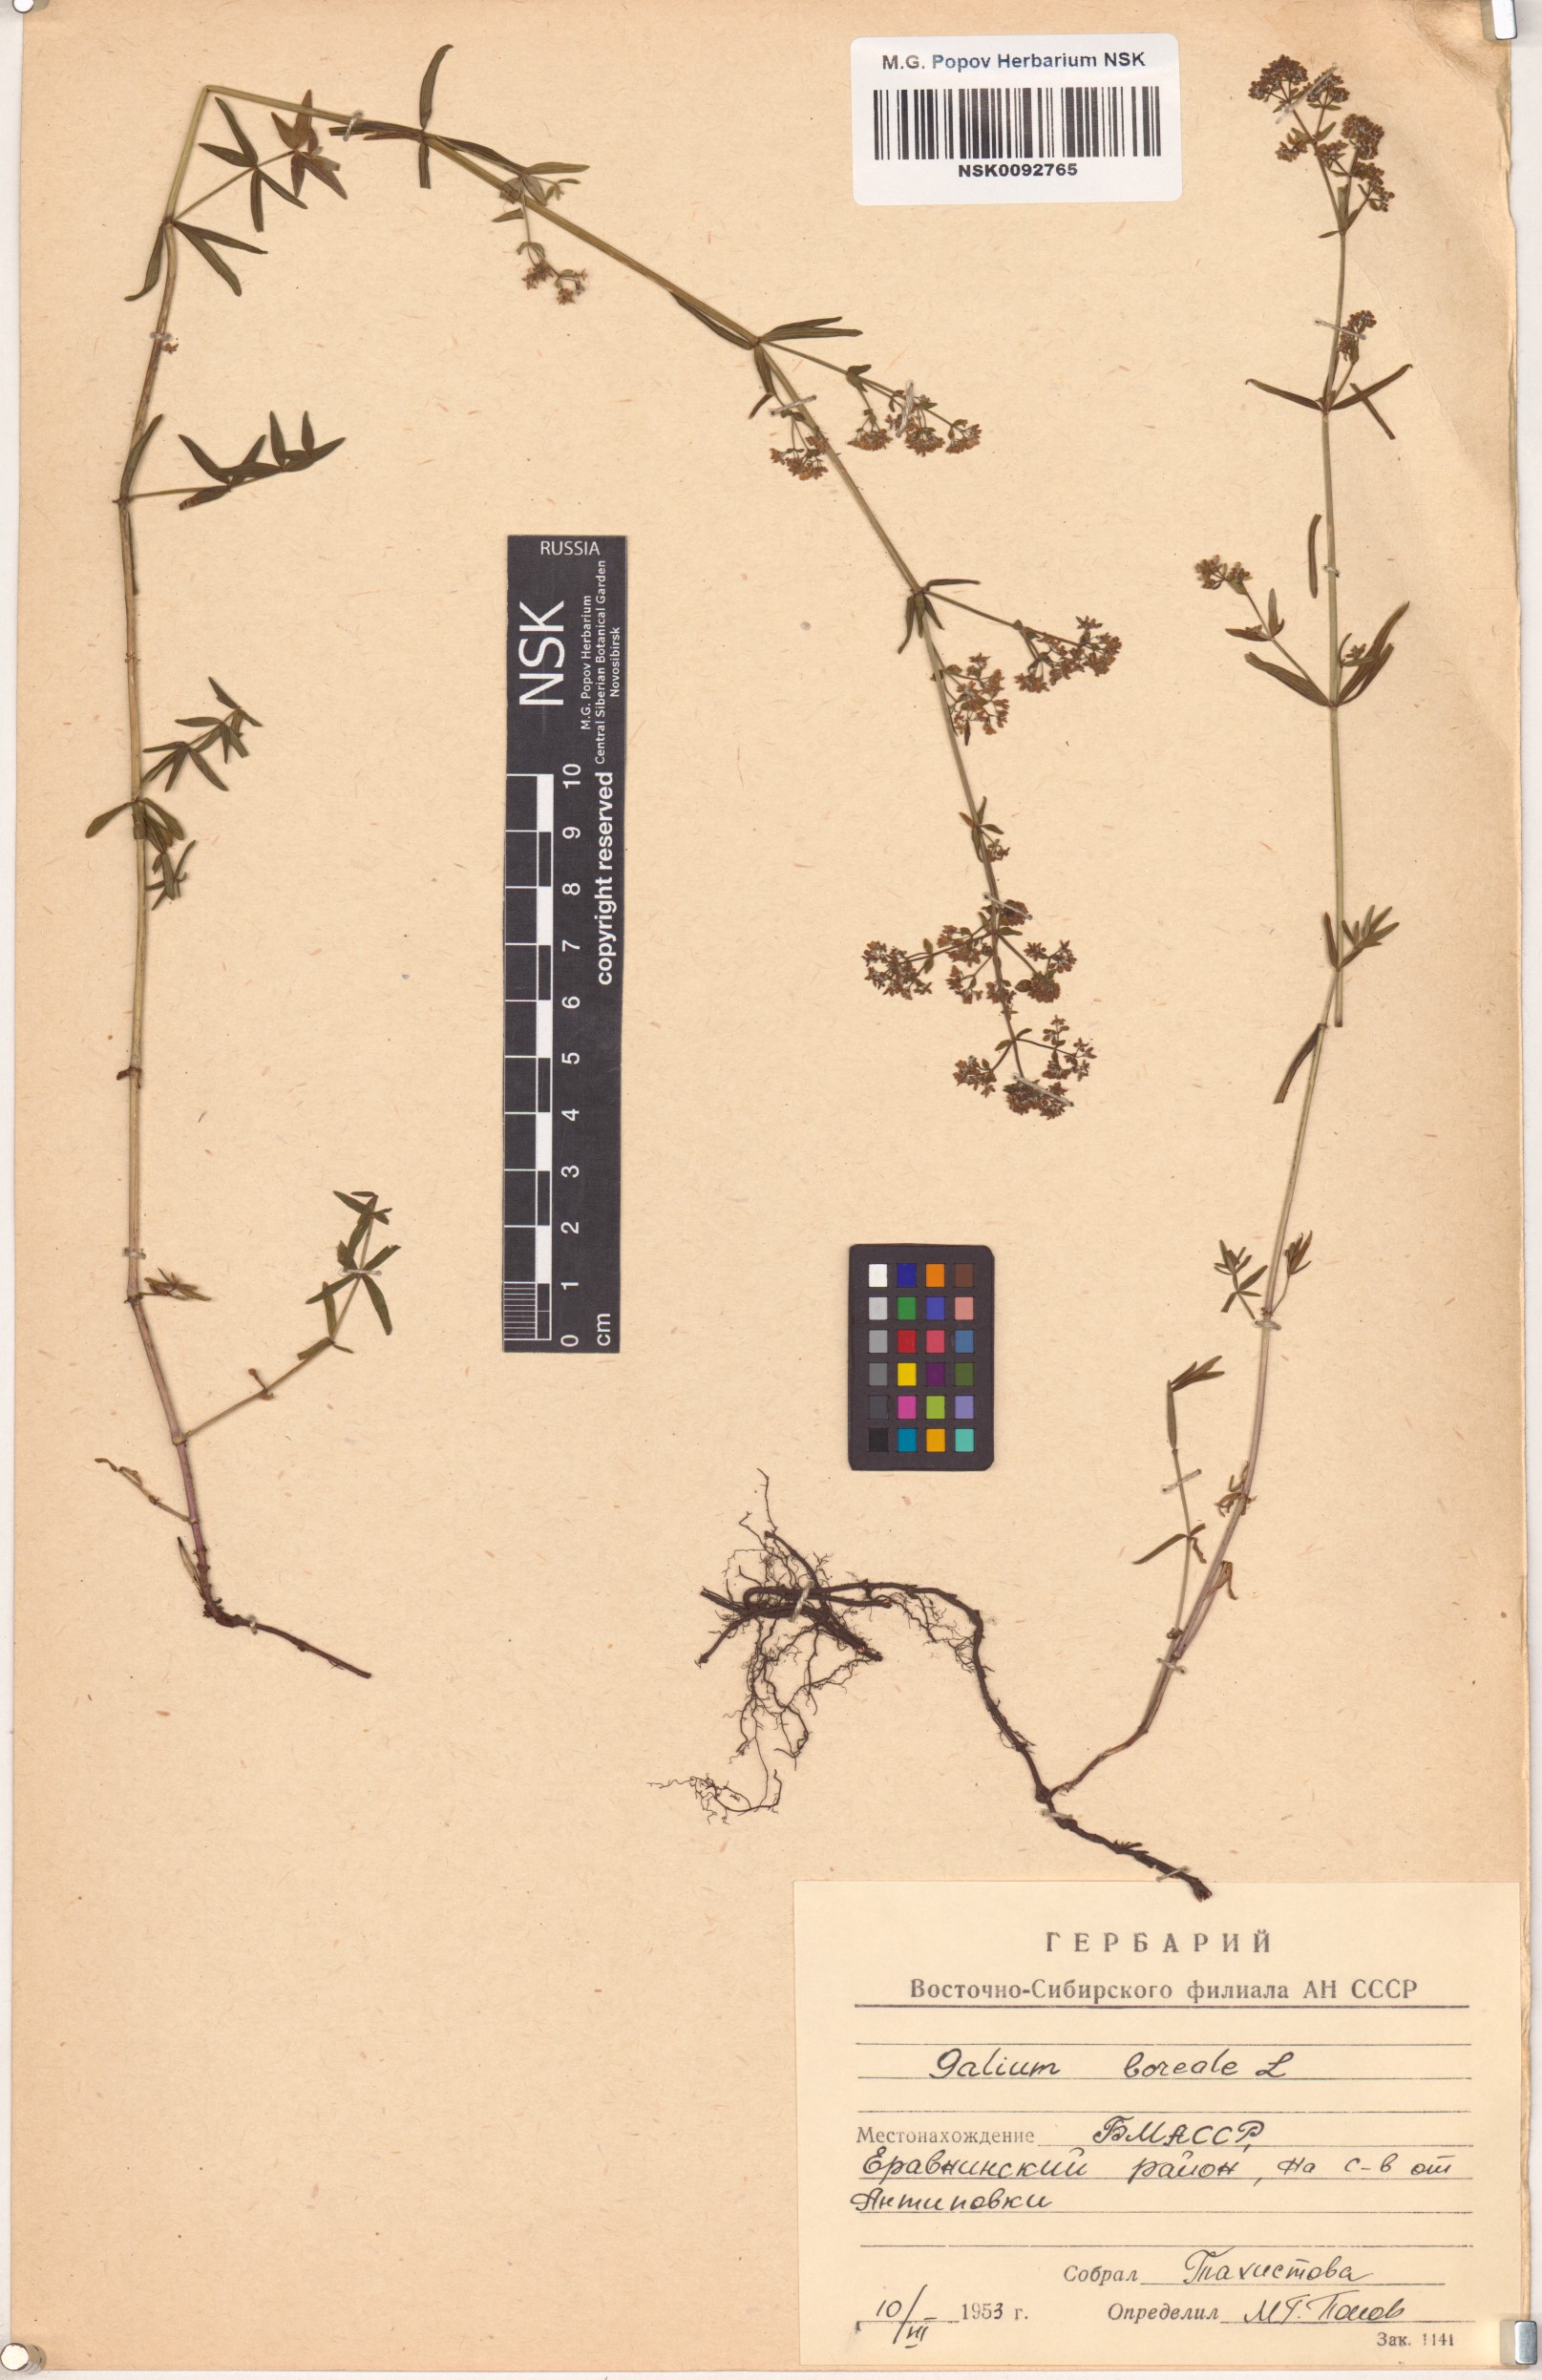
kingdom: Plantae
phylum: Tracheophyta
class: Magnoliopsida
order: Gentianales
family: Rubiaceae
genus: Galium
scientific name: Galium boreale
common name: Northern bedstraw
